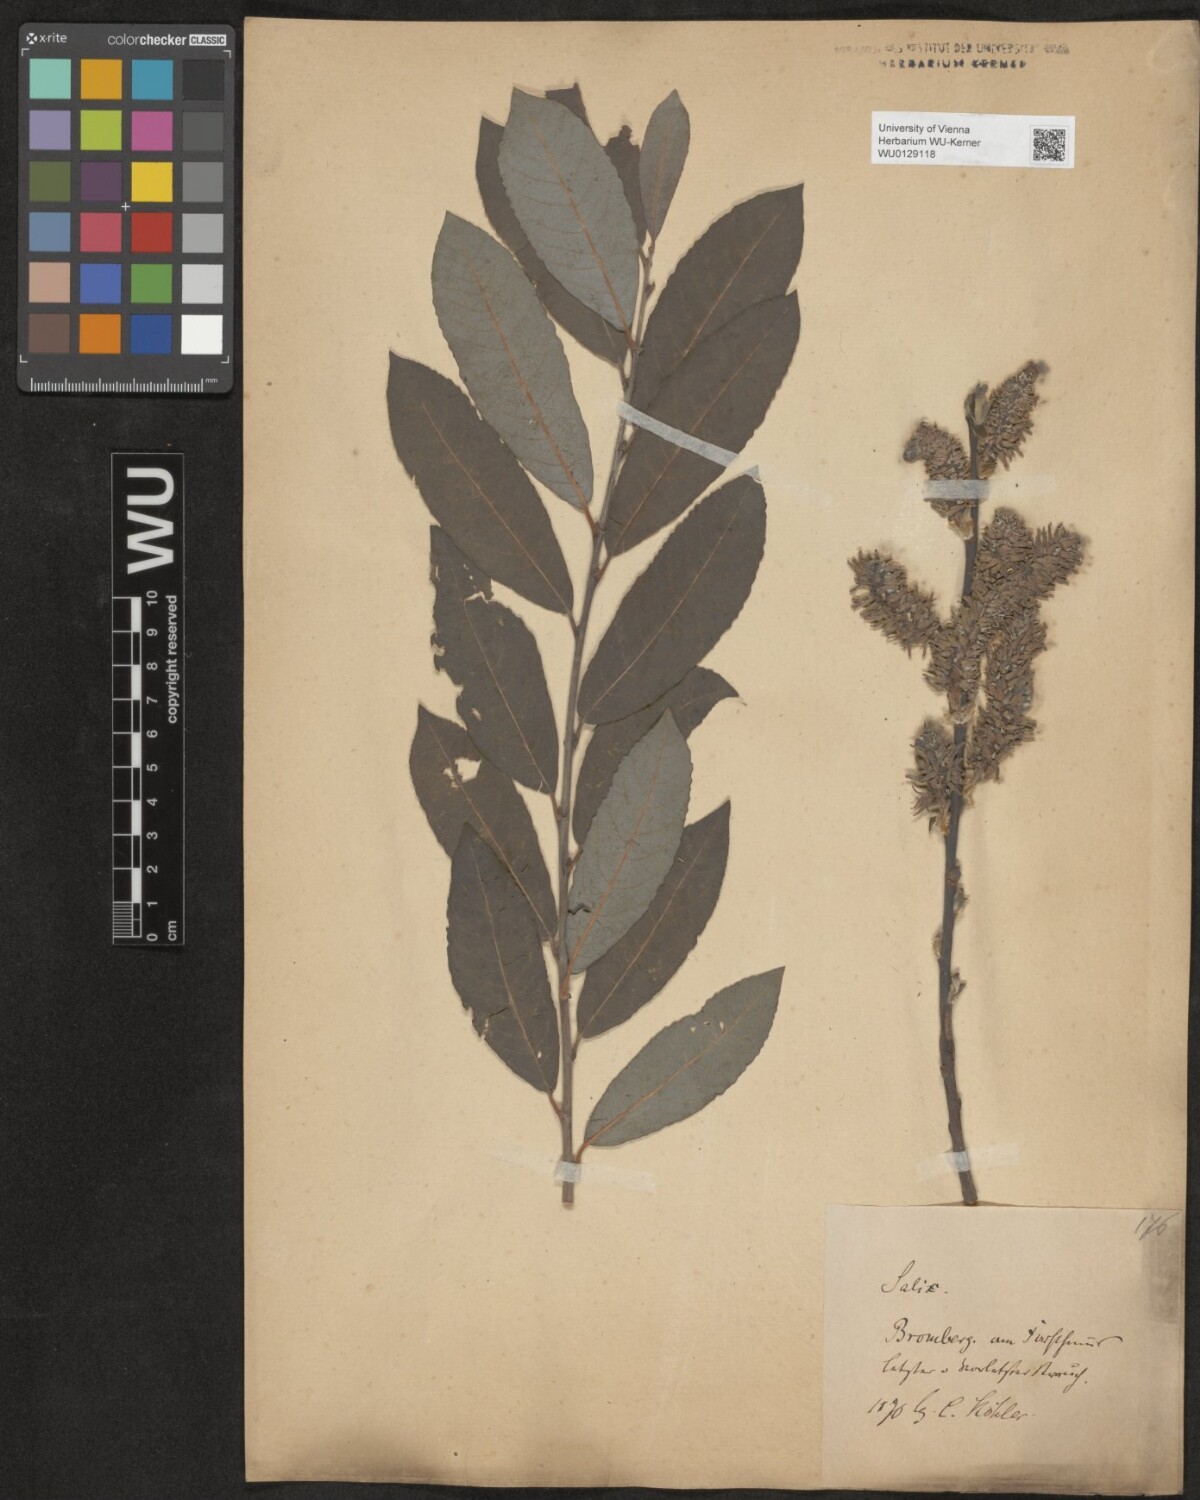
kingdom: Plantae
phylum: Tracheophyta
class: Magnoliopsida
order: Malpighiales
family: Salicaceae
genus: Salix
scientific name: Salix cinerea
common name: Common sallow
